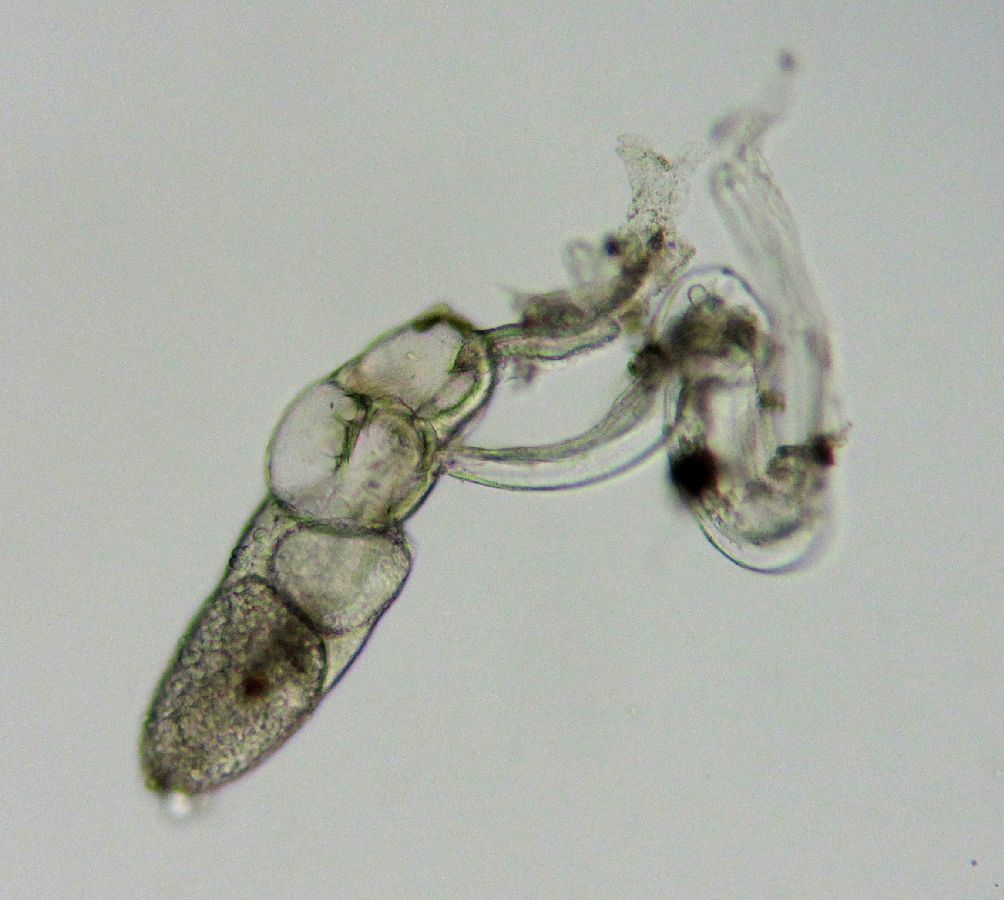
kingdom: Animalia
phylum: Chordata
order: Copelata
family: Fritillariidae
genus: Fritillaria
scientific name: Fritillaria borealis
